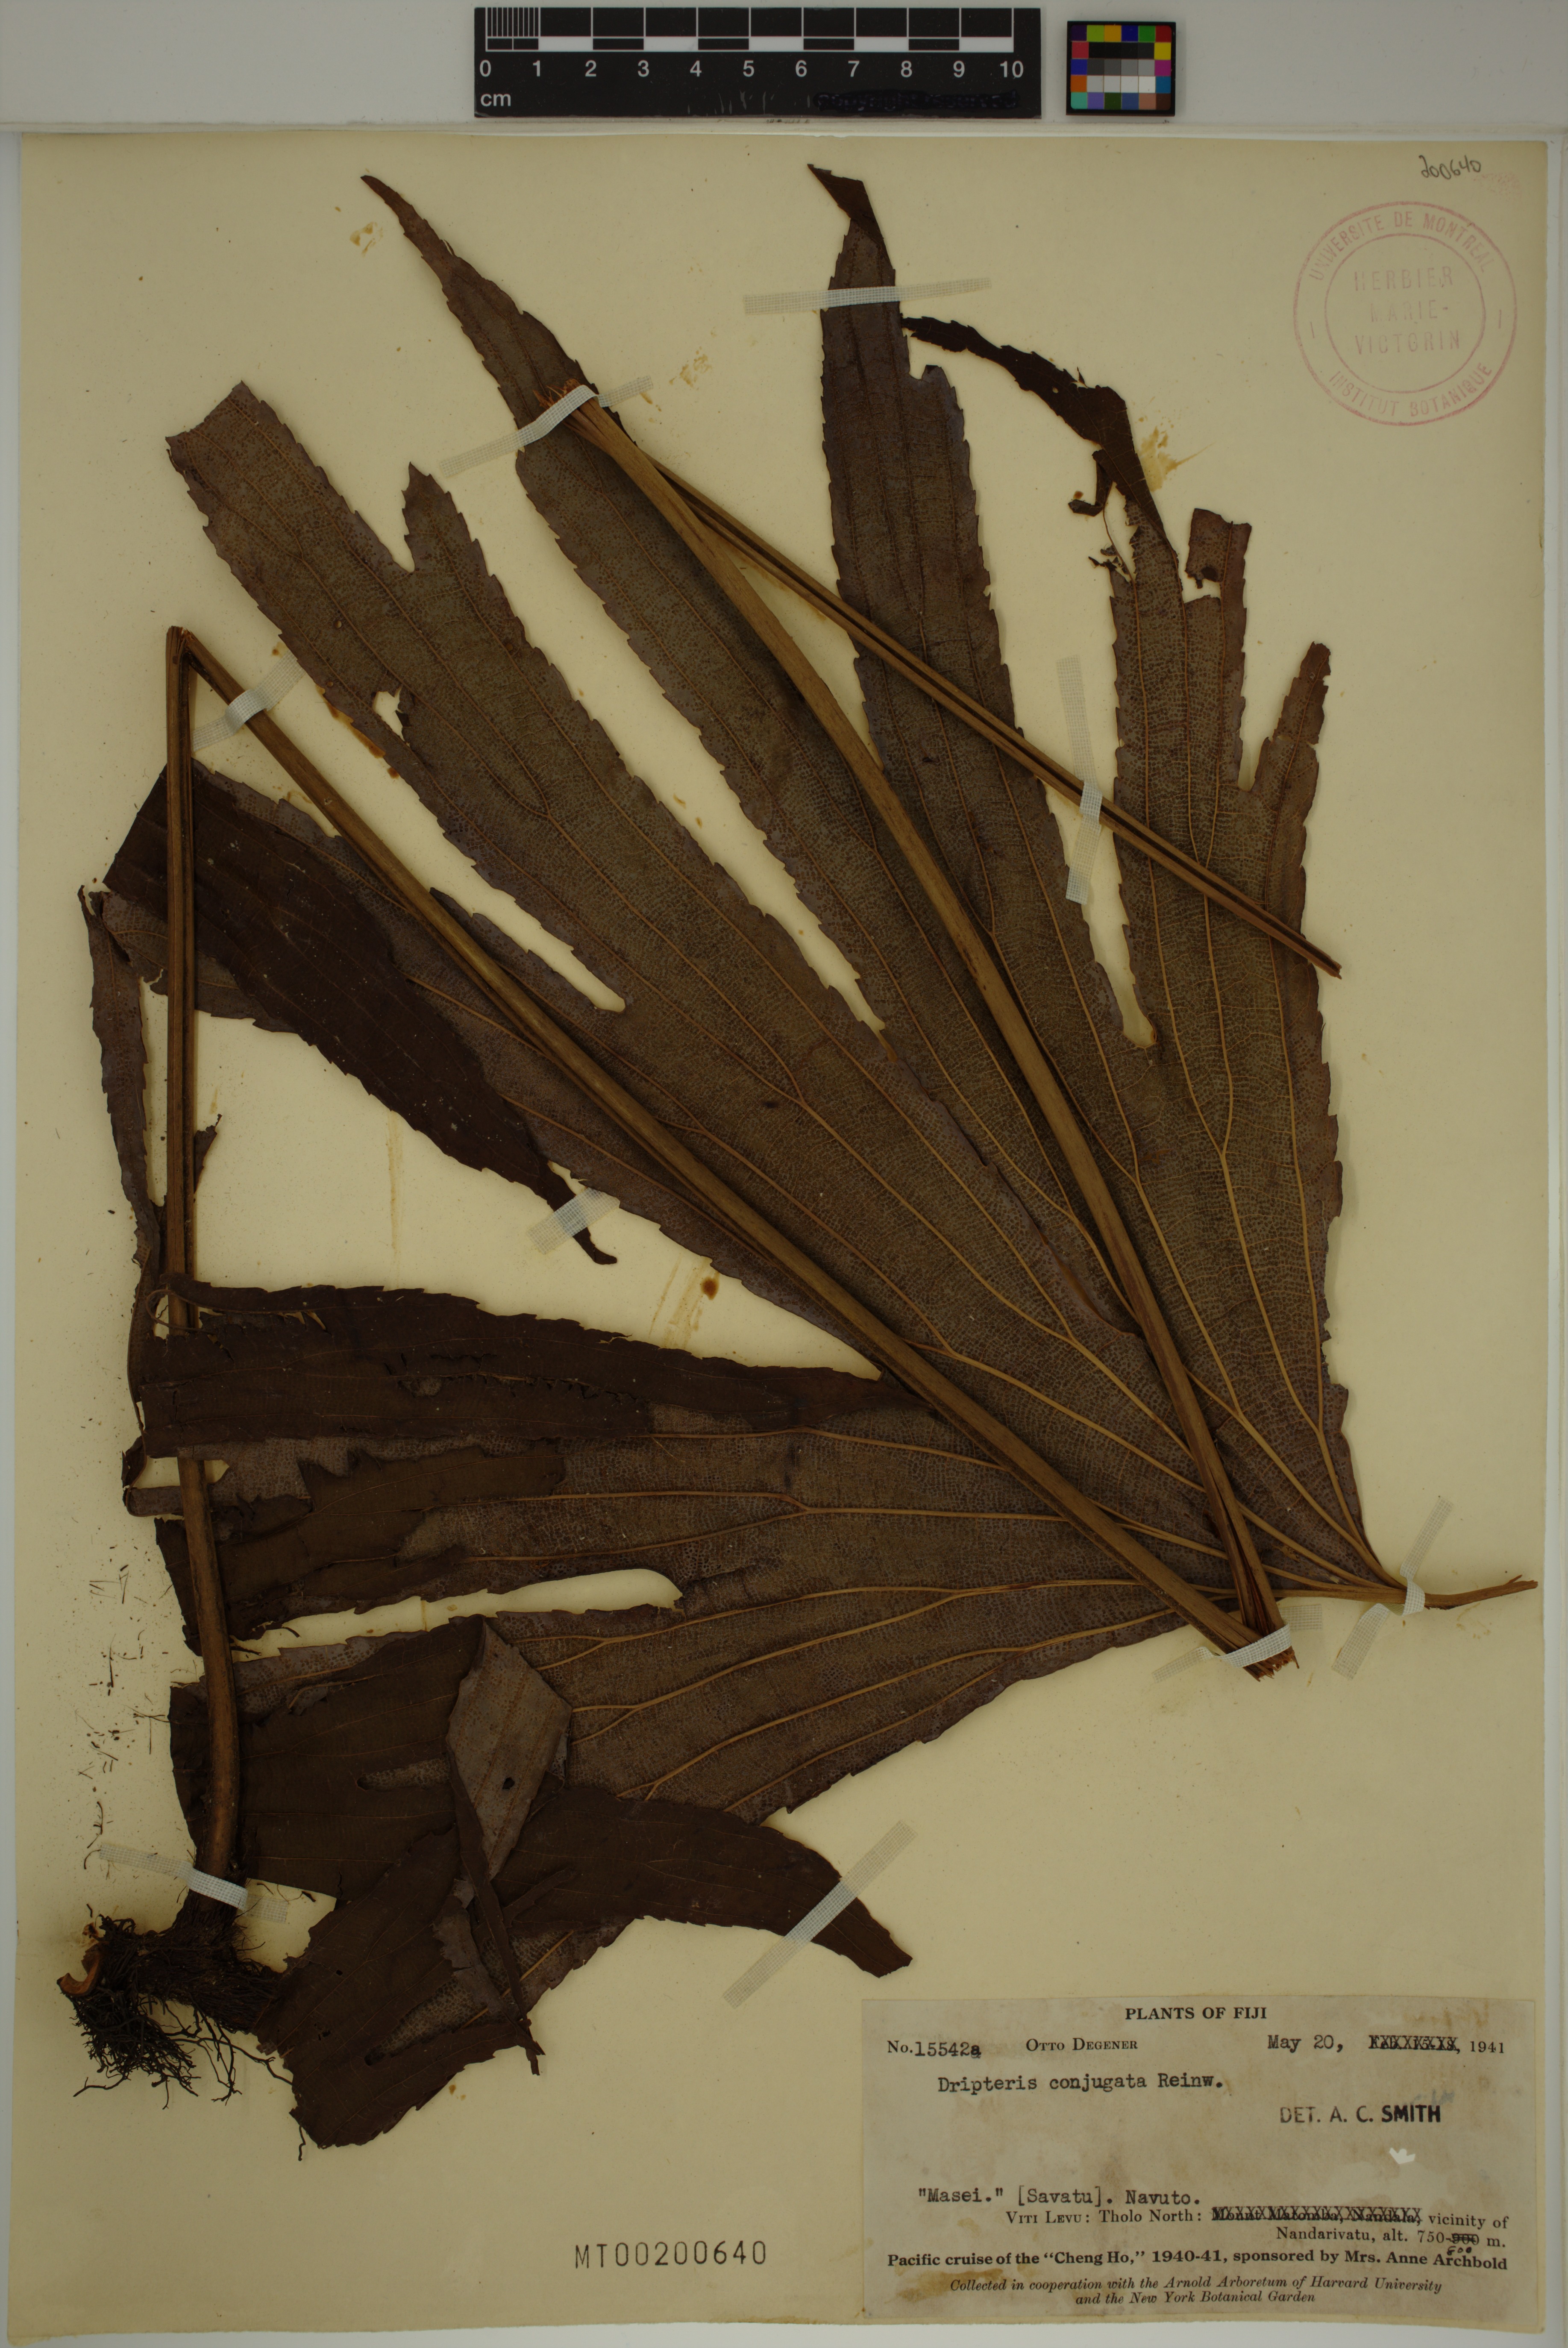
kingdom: Plantae
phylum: Tracheophyta
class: Polypodiopsida
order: Gleicheniales
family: Dipteridaceae
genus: Dipteris
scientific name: Dipteris conjugata
